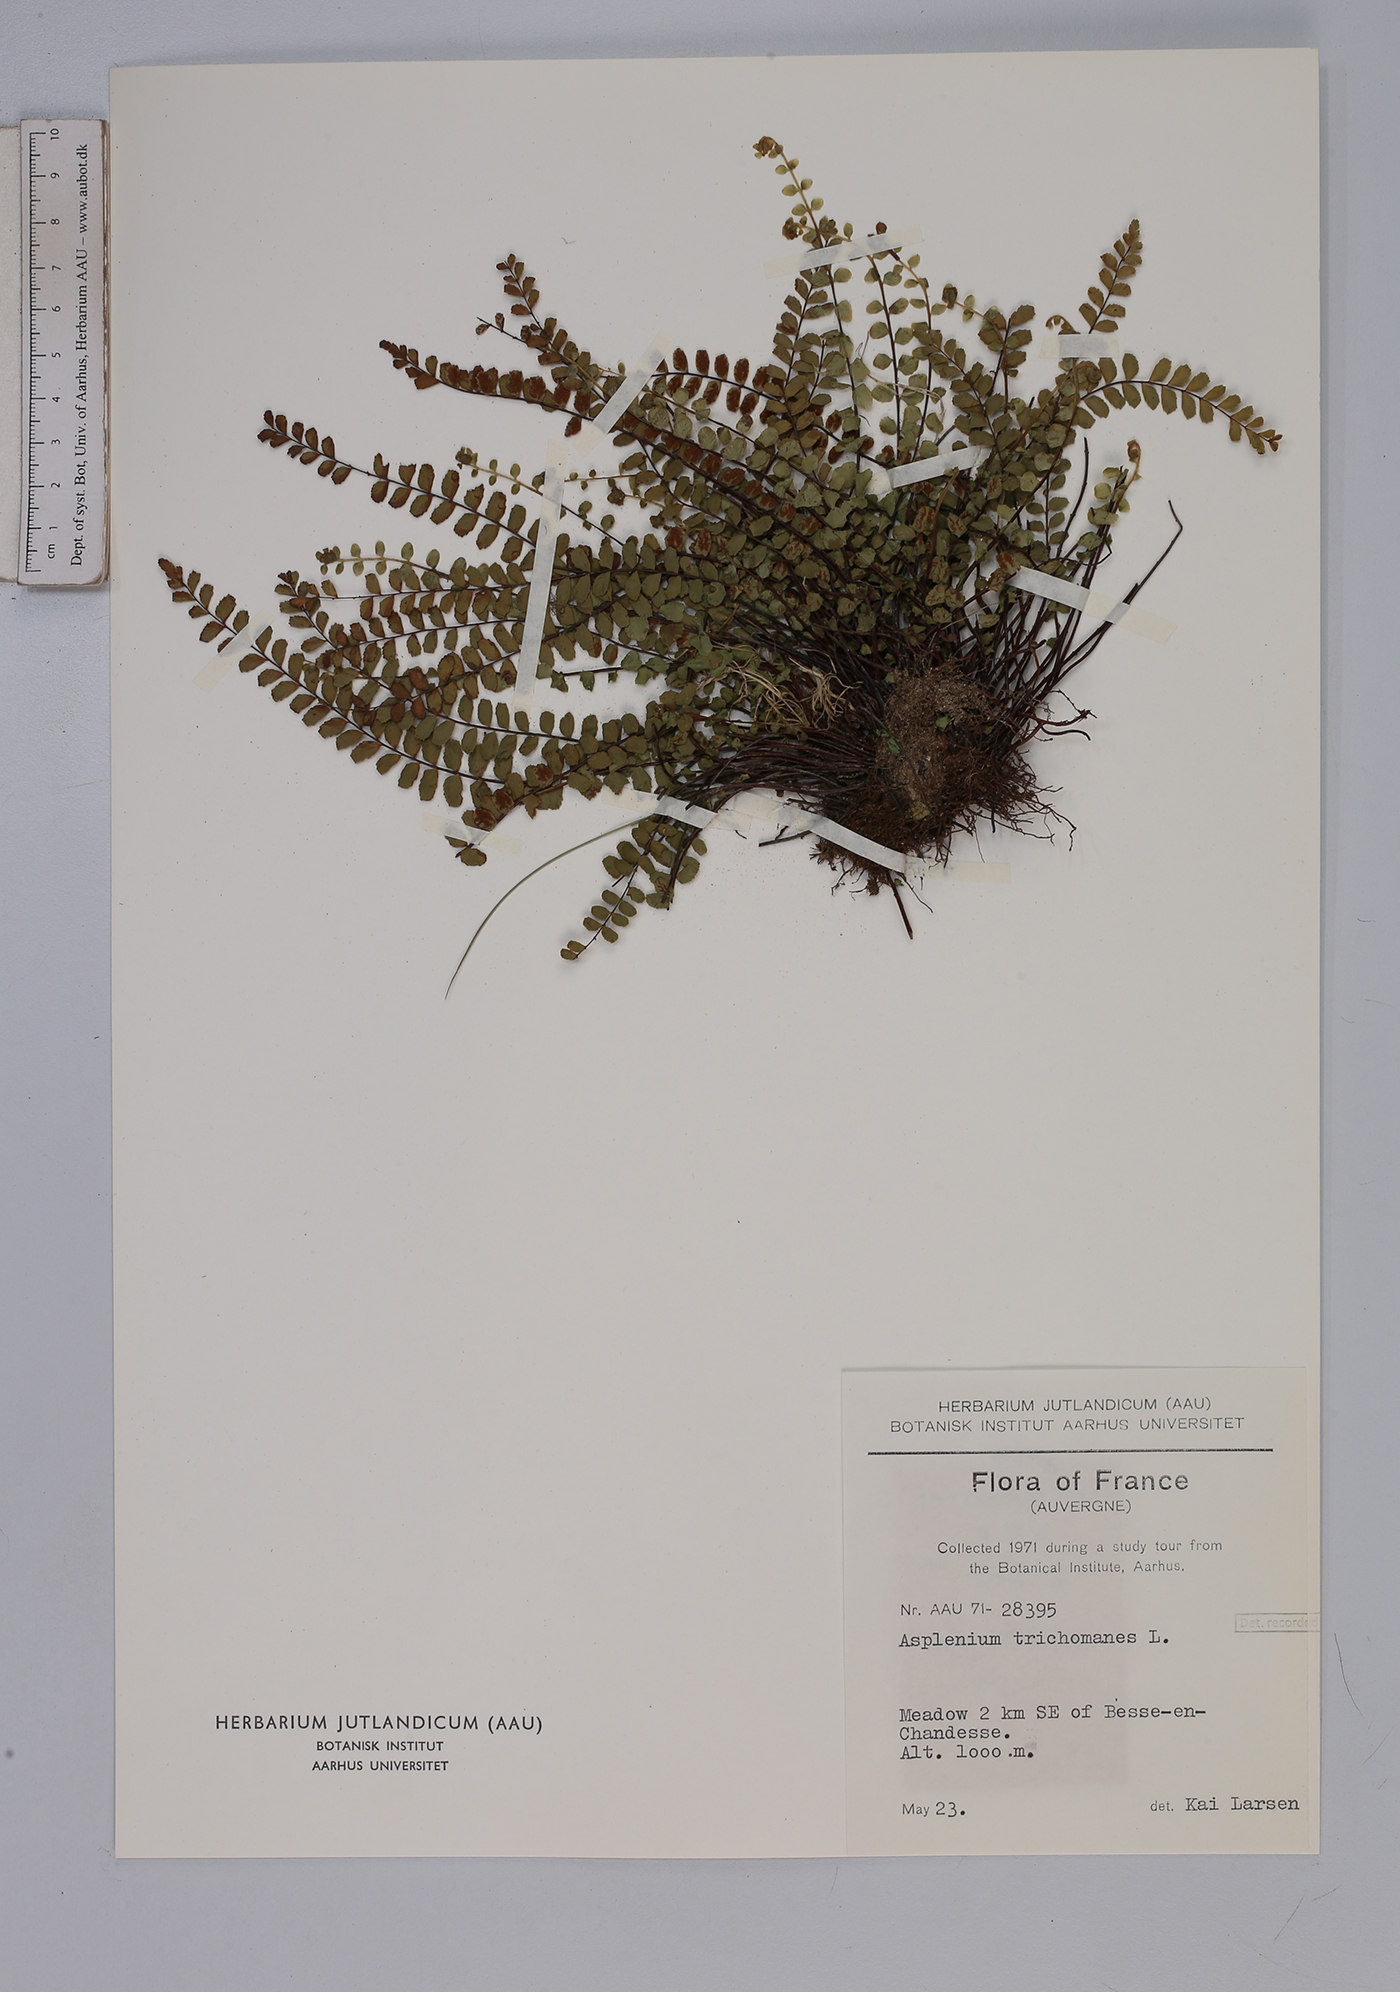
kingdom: Plantae
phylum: Tracheophyta
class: Polypodiopsida
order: Polypodiales
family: Aspleniaceae
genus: Asplenium
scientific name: Asplenium trichomanes
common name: Maidenhair spleenwort
